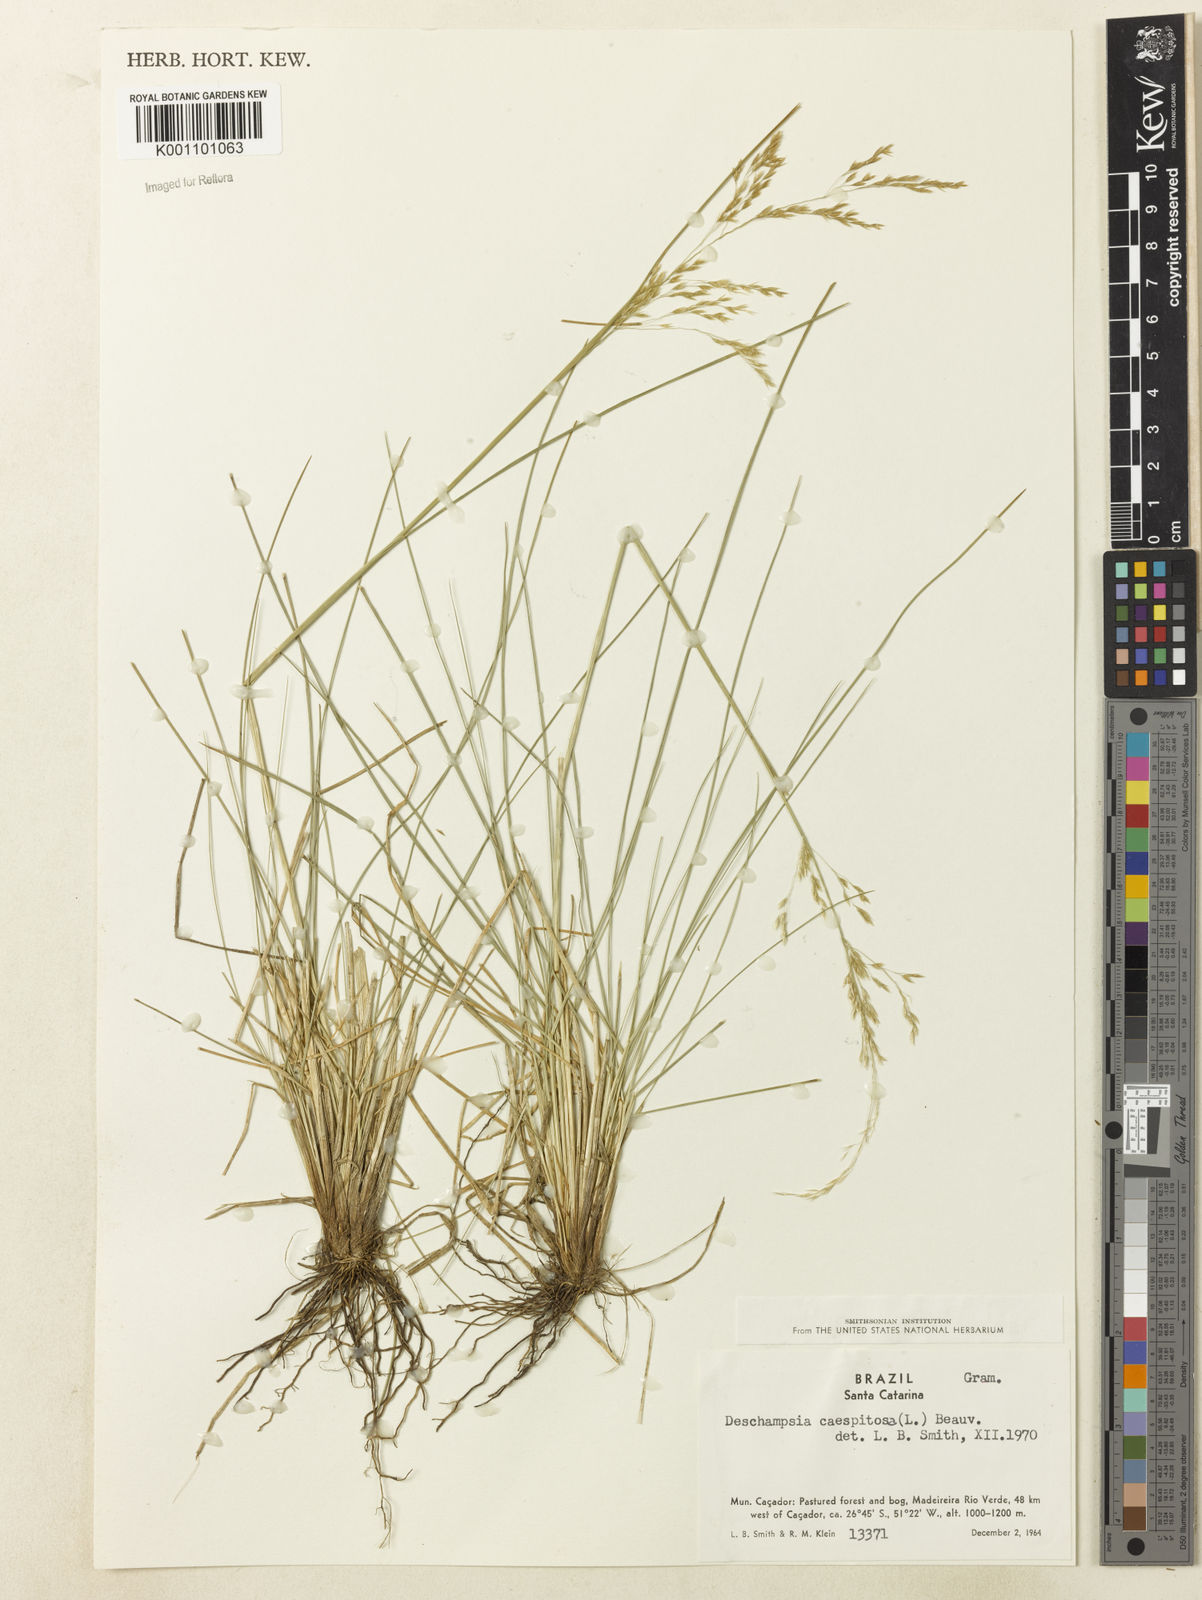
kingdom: Plantae
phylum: Tracheophyta
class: Liliopsida
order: Poales
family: Poaceae
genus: Deschampsia
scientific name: Deschampsia
